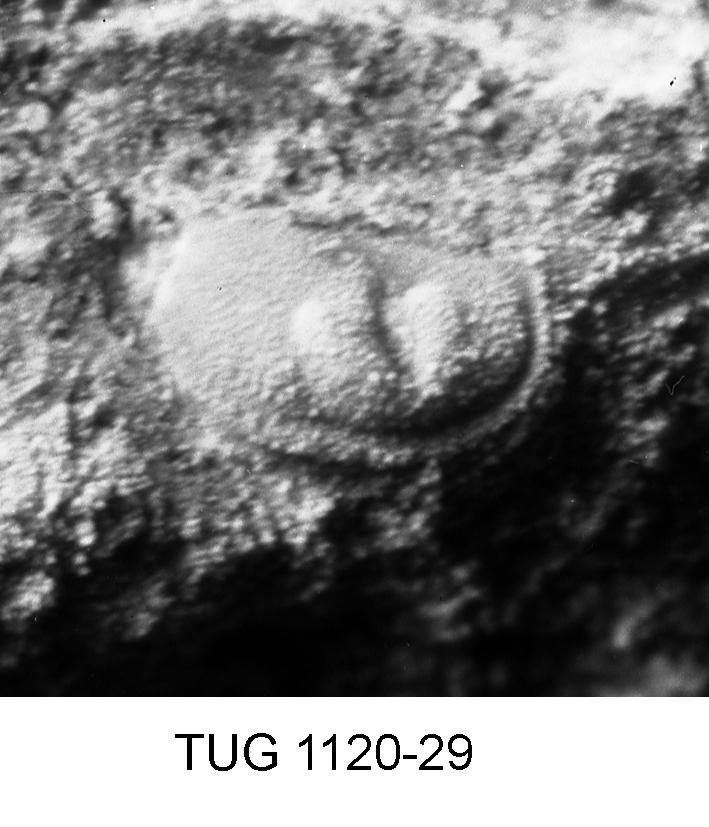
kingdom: Animalia
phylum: Arthropoda
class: Ostracoda
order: Palaeocopida
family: Tetradellidae
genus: Ctenobolbina
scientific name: Ctenobolbina
